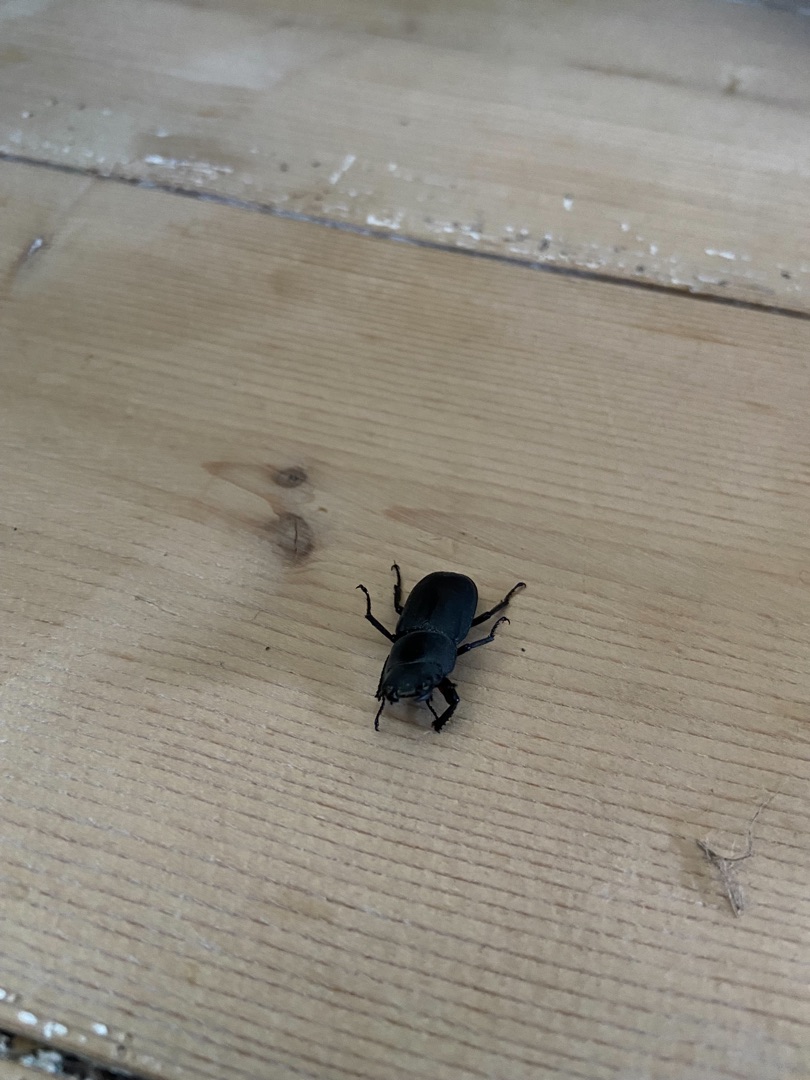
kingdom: Animalia
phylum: Arthropoda
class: Insecta
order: Coleoptera
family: Lucanidae
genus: Dorcus
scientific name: Dorcus parallelipipedus
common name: Bøghjort
